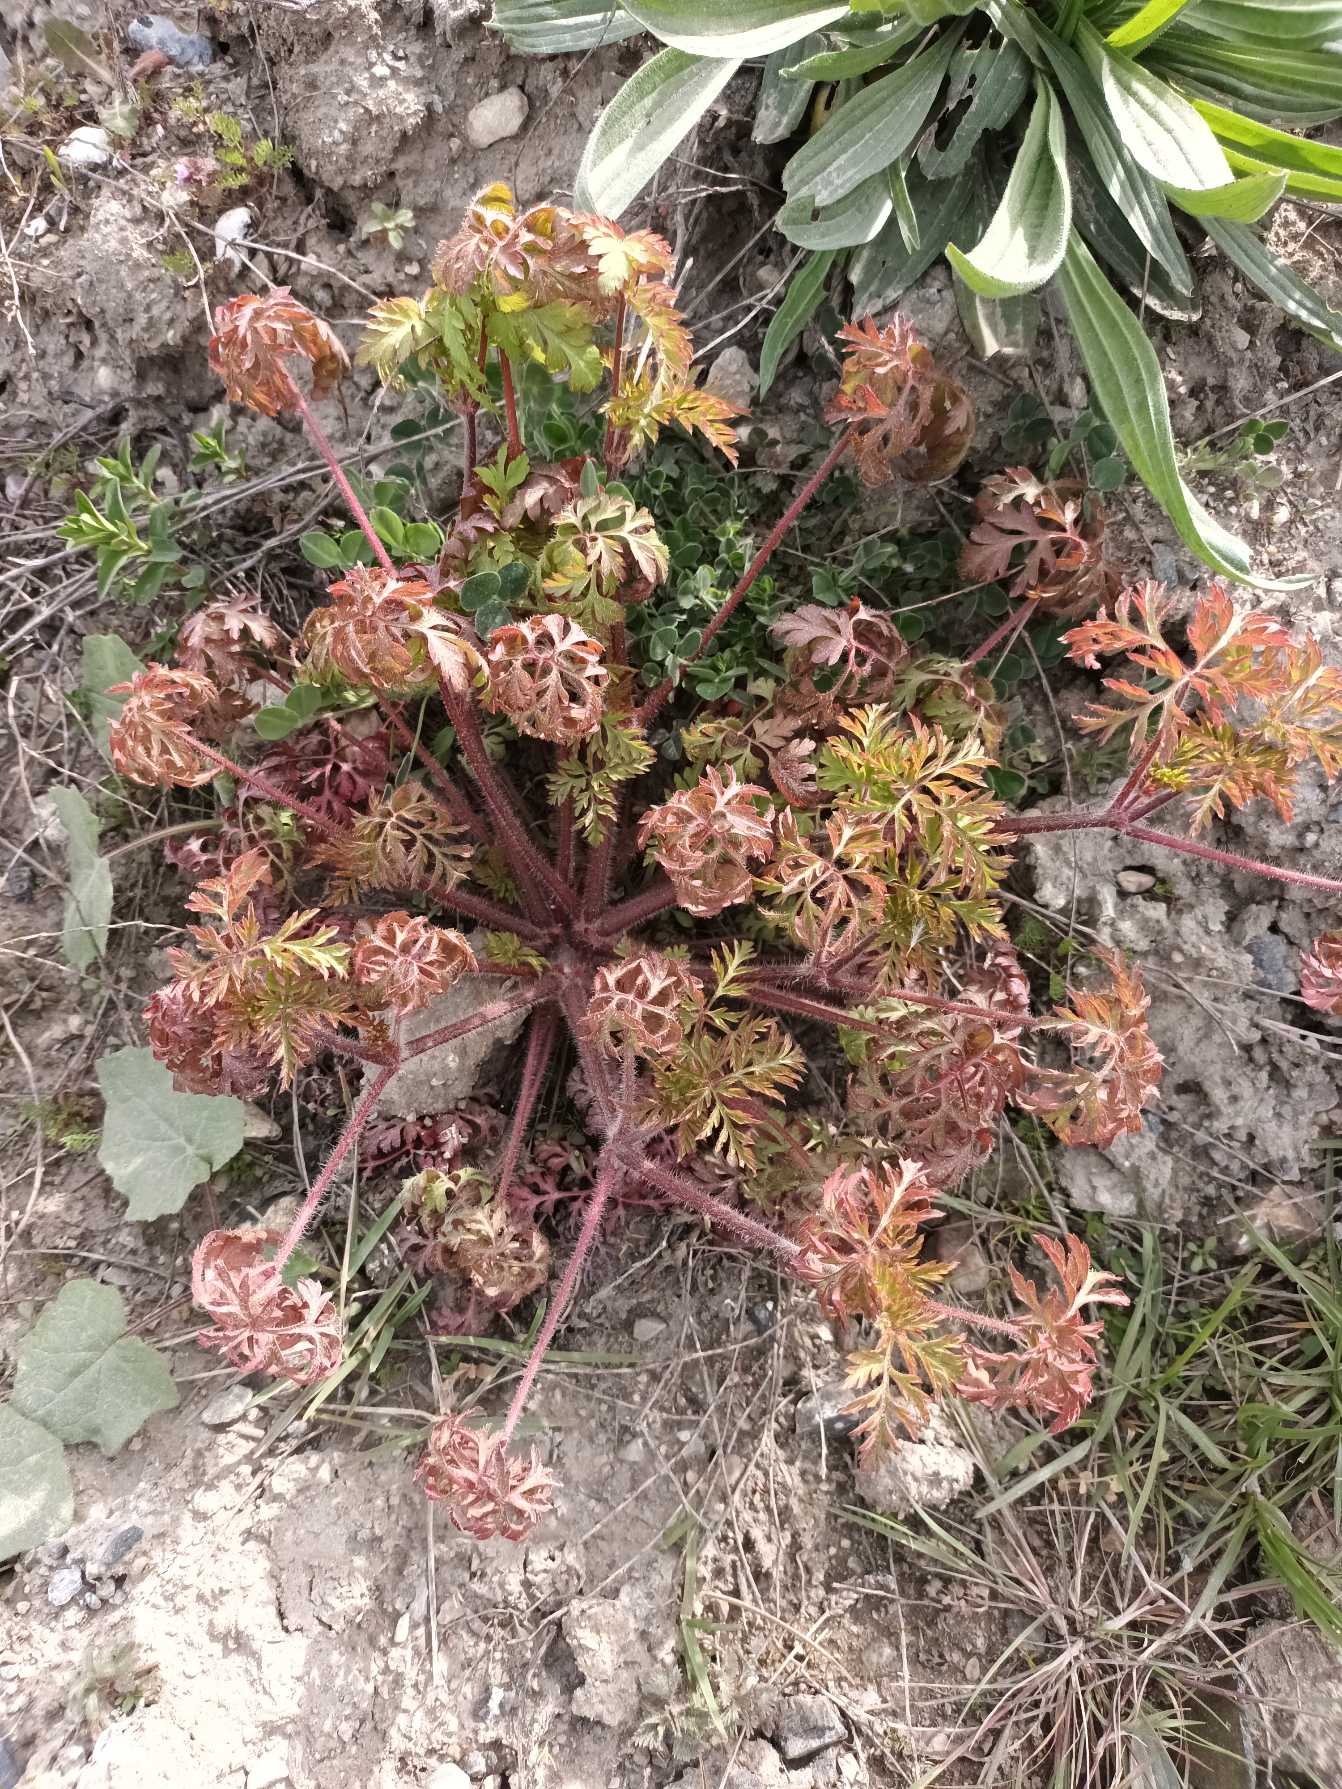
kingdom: Plantae
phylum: Tracheophyta
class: Magnoliopsida
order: Geraniales
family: Geraniaceae
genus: Geranium
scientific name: Geranium robertianum
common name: Stinkende storkenæb
